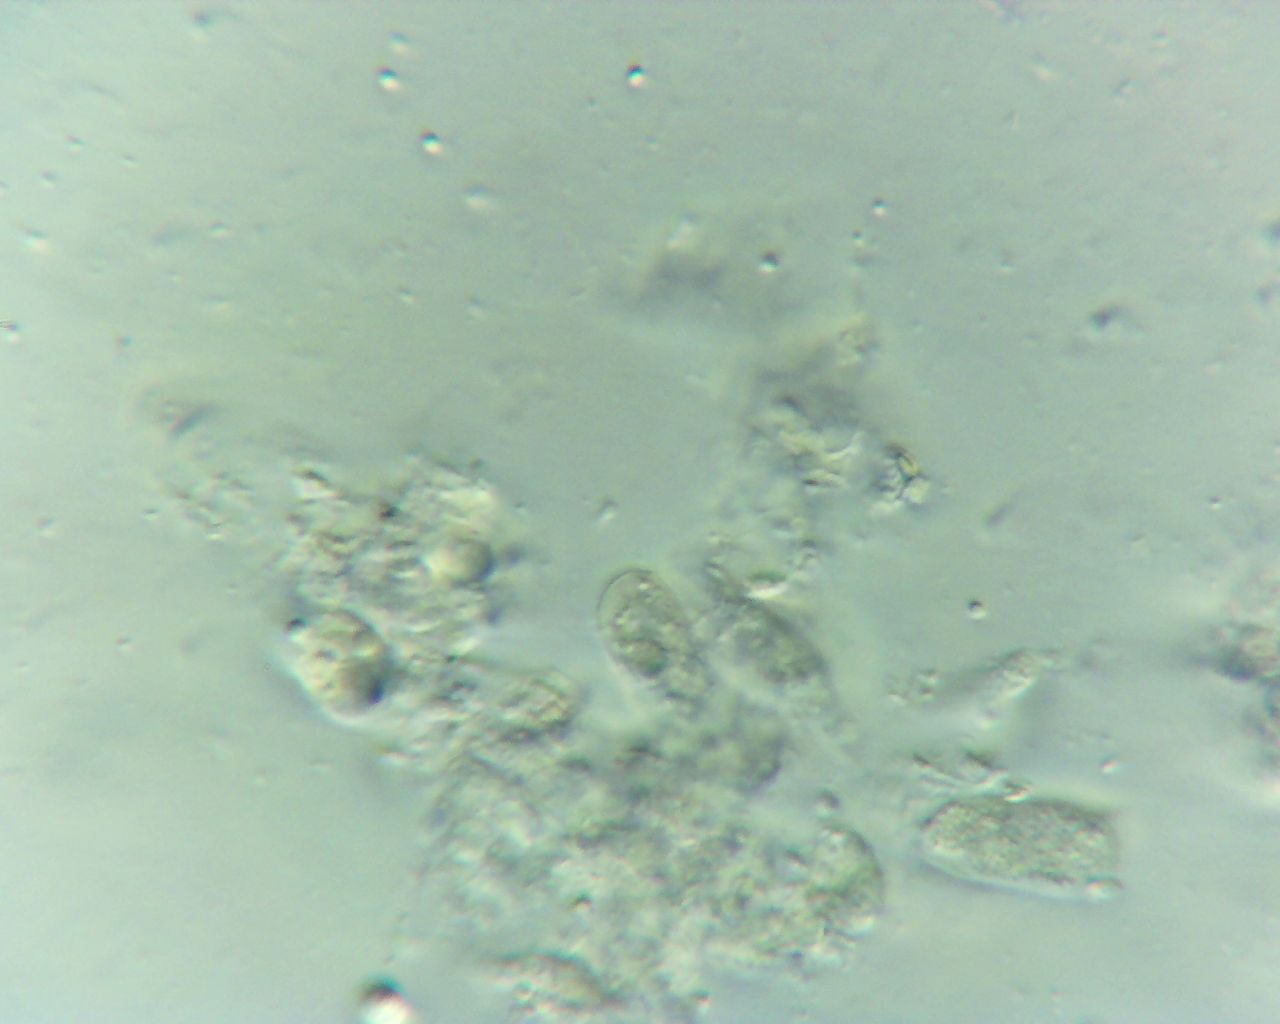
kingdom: Fungi
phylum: Basidiomycota
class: Agaricomycetes
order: Agaricales
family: Marasmiaceae
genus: Henningsomyces
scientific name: Henningsomyces candidus
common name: glat hængerør
